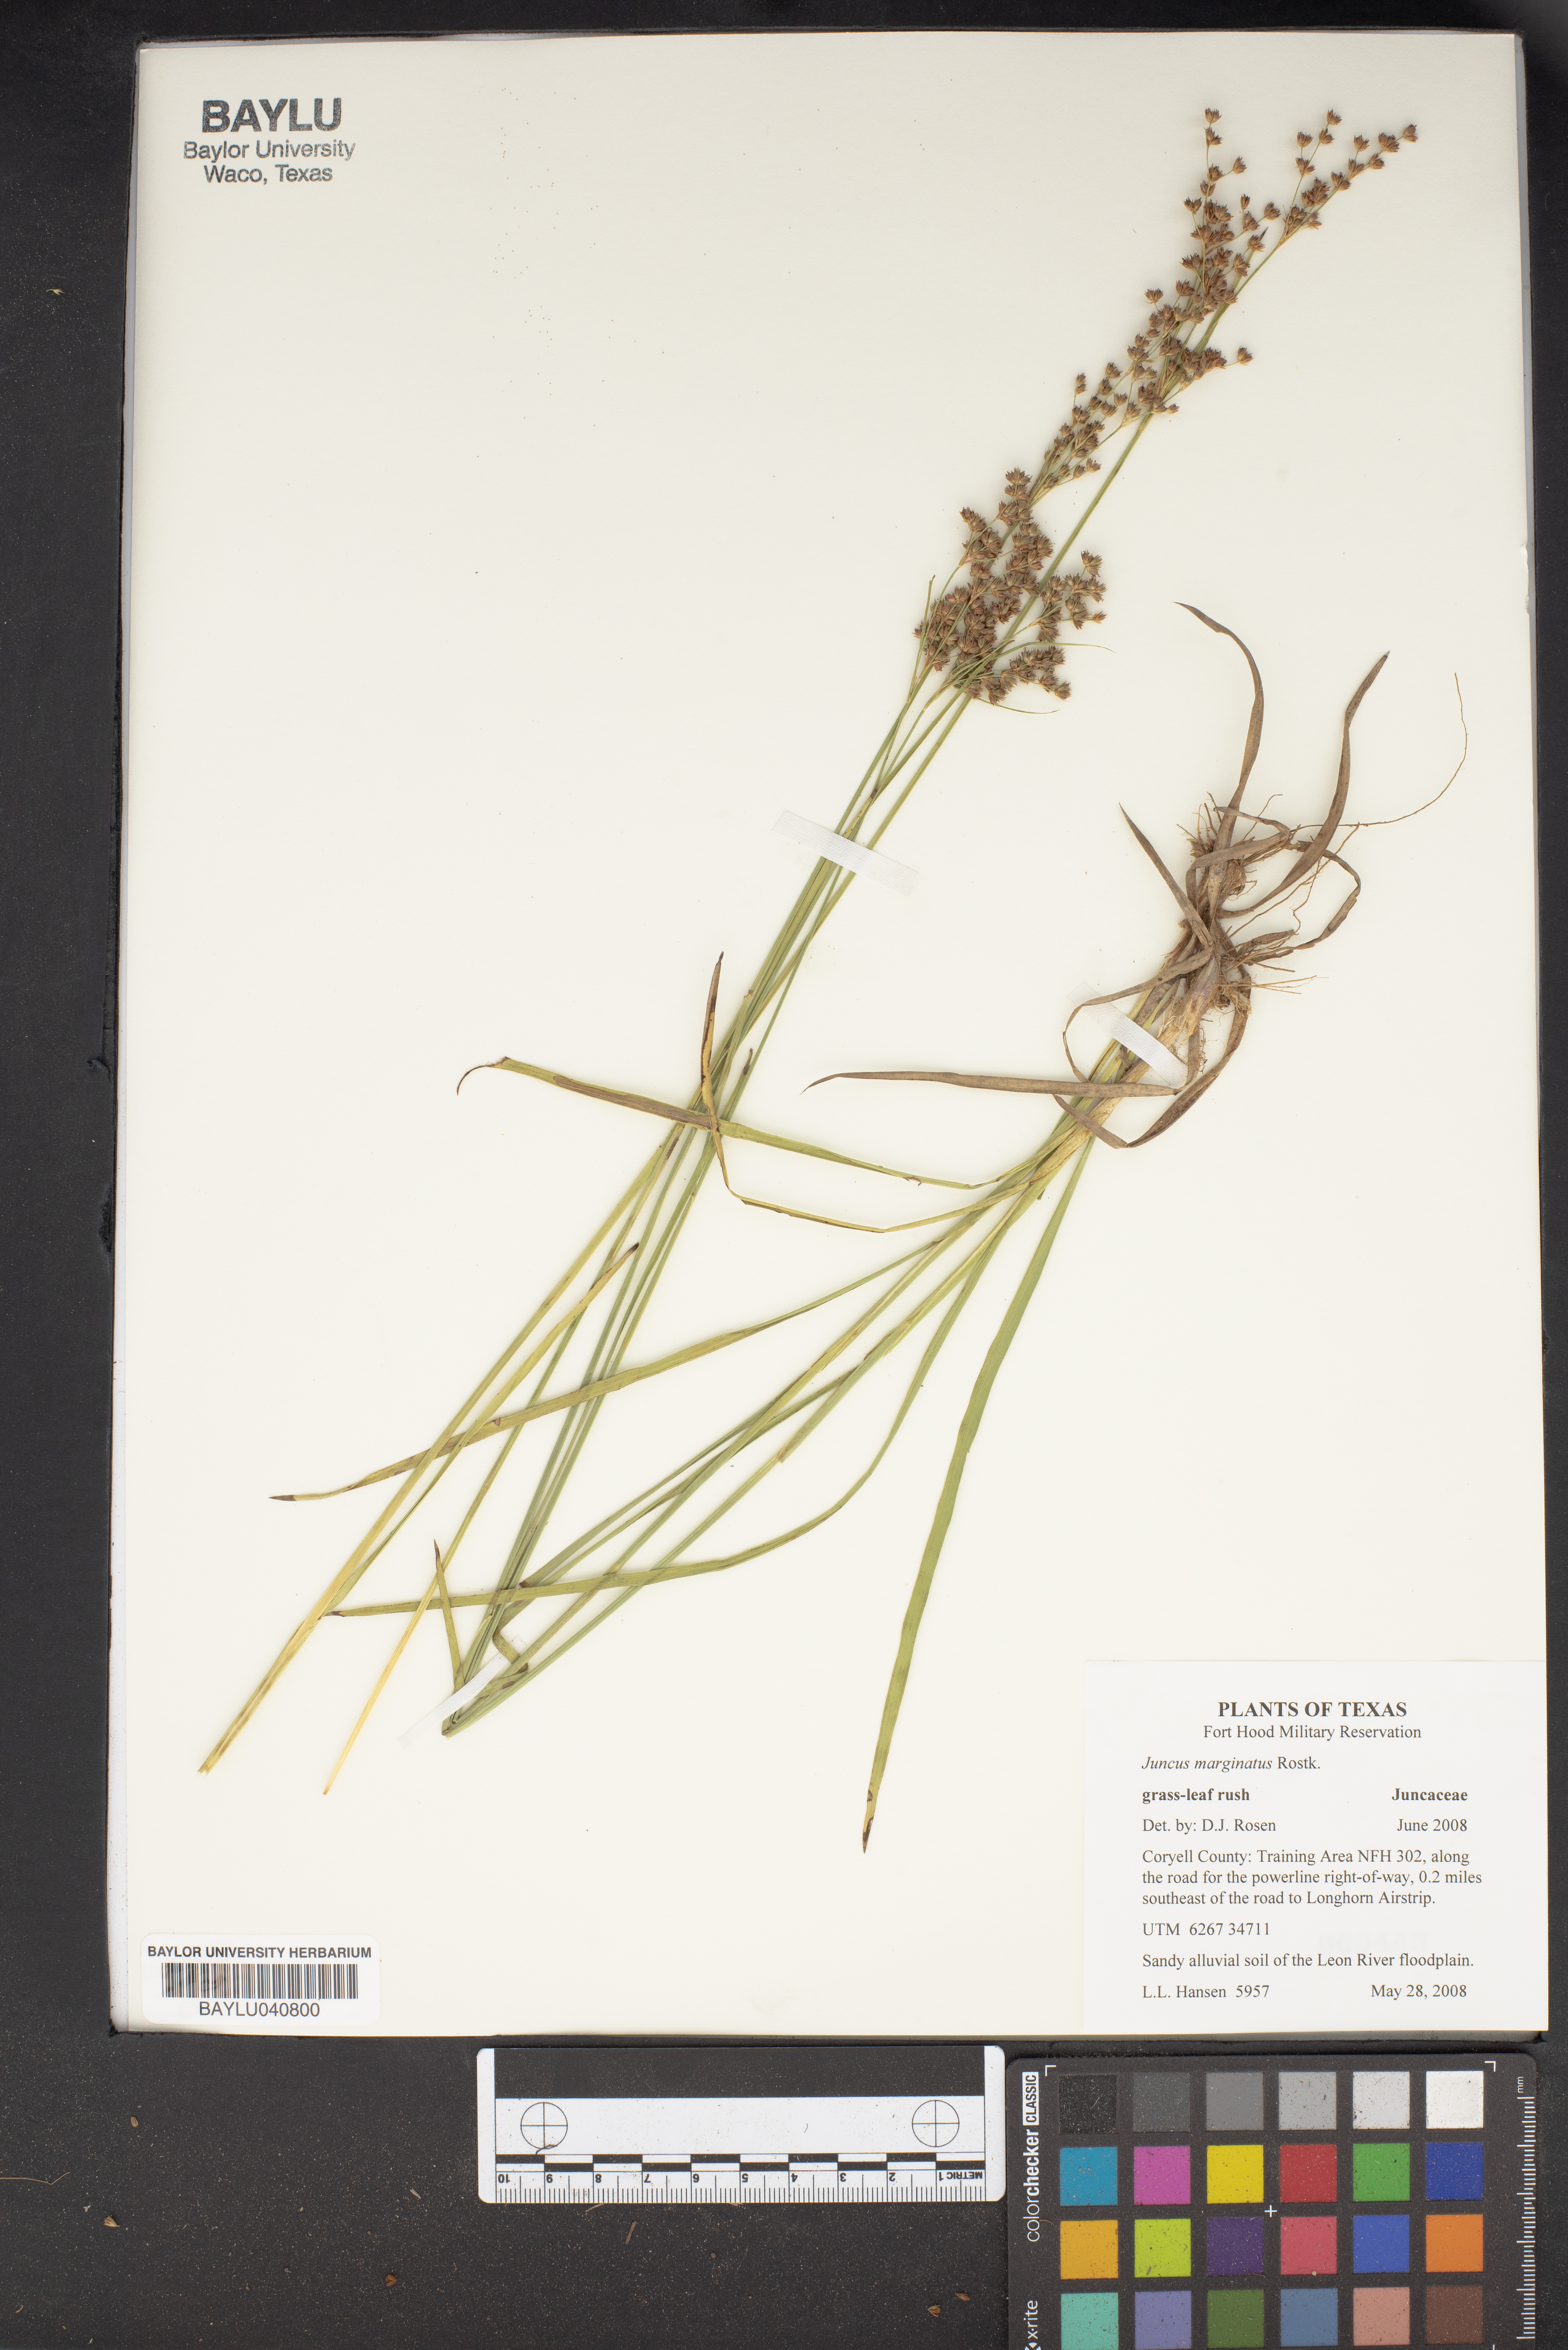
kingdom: Plantae
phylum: Tracheophyta
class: Liliopsida
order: Poales
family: Juncaceae
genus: Juncus
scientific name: Juncus marginatus
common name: Grass-leaf rush
